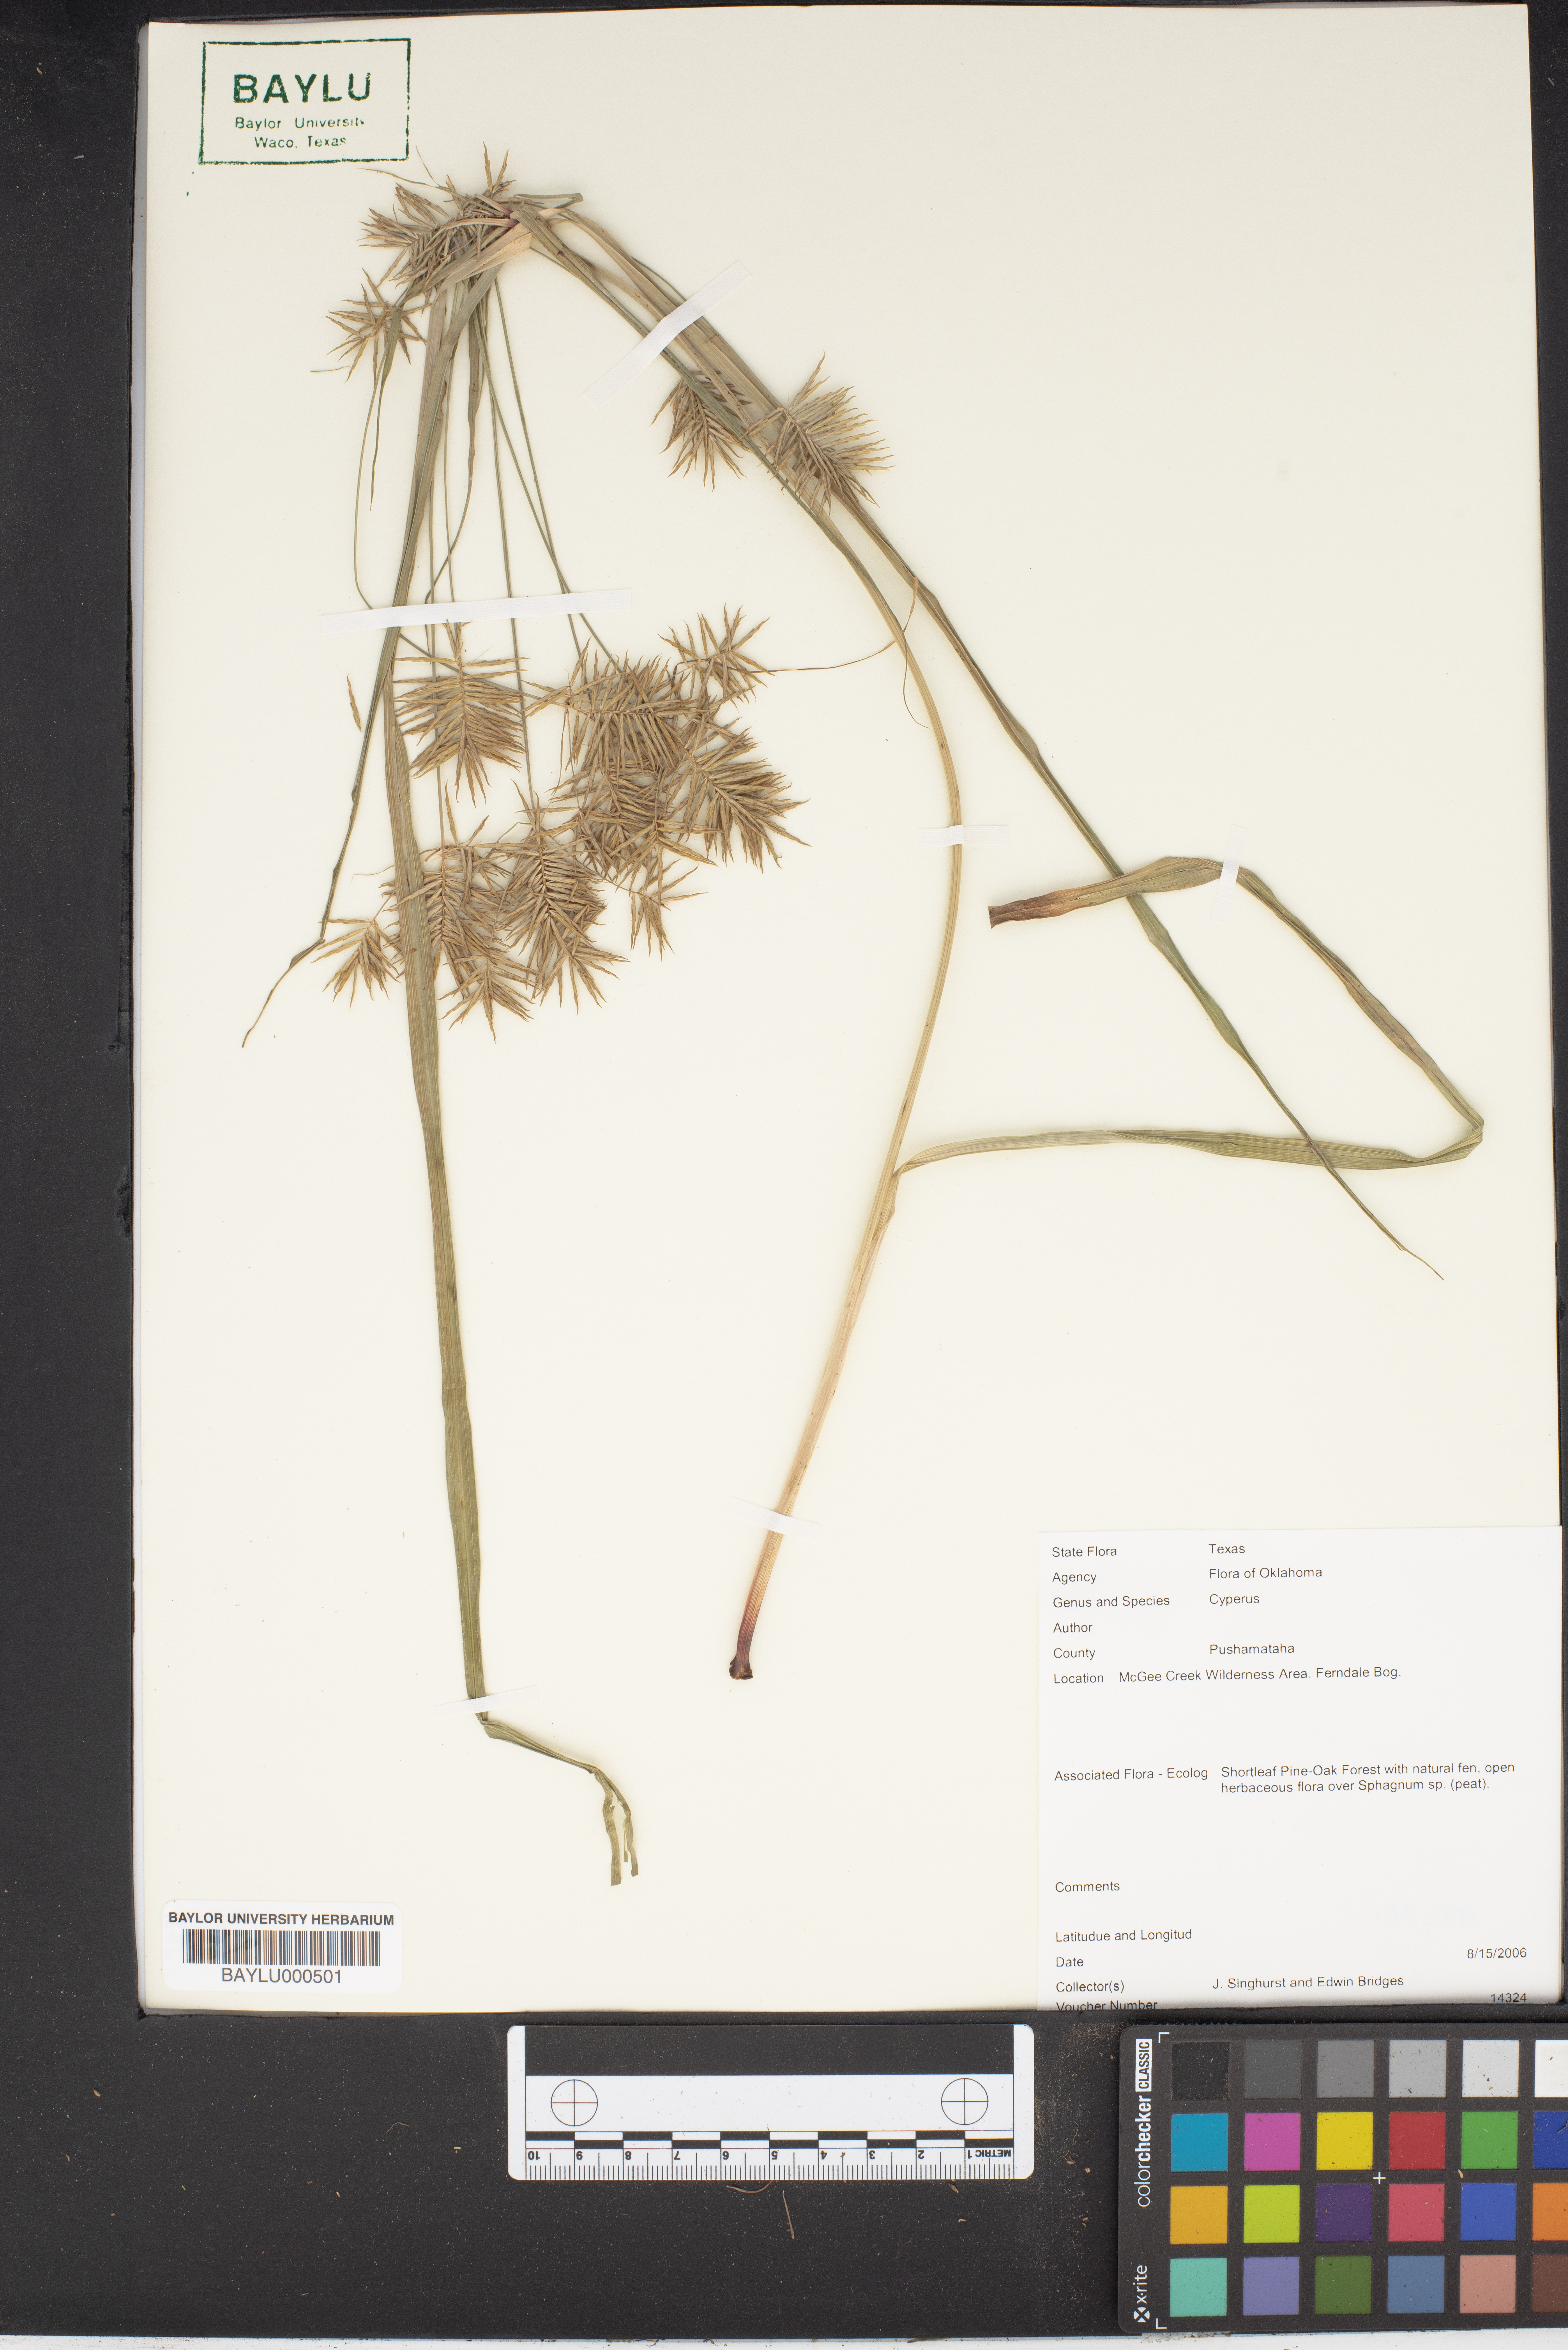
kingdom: Plantae
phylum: Tracheophyta
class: Liliopsida
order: Poales
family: Cyperaceae
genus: Cyperus
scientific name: Cyperus
